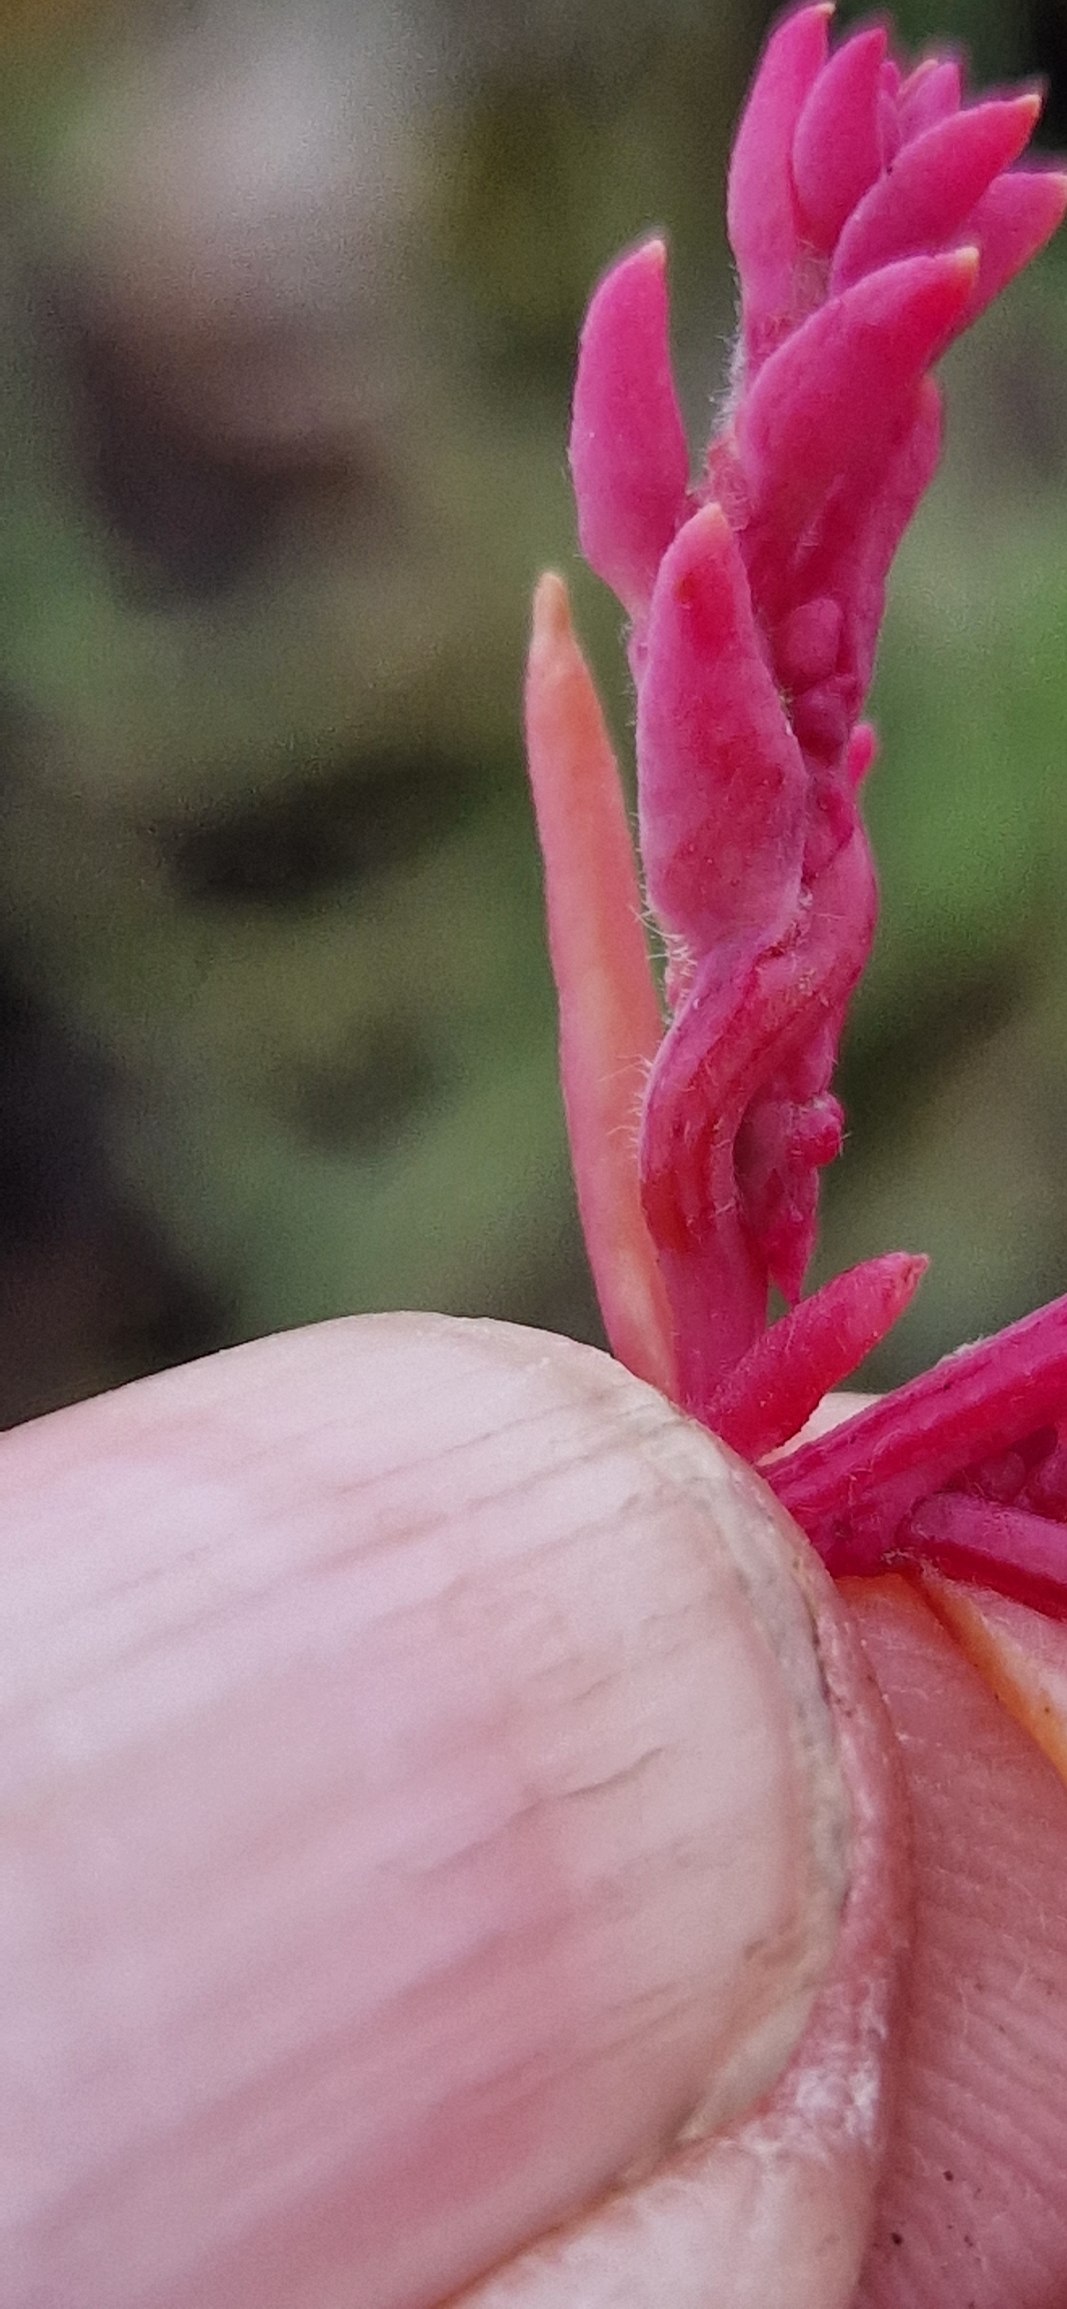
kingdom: Plantae
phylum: Tracheophyta
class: Magnoliopsida
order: Caryophyllales
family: Amaranthaceae
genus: Spirobassia
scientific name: Spirobassia hirsuta
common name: Tangurt
